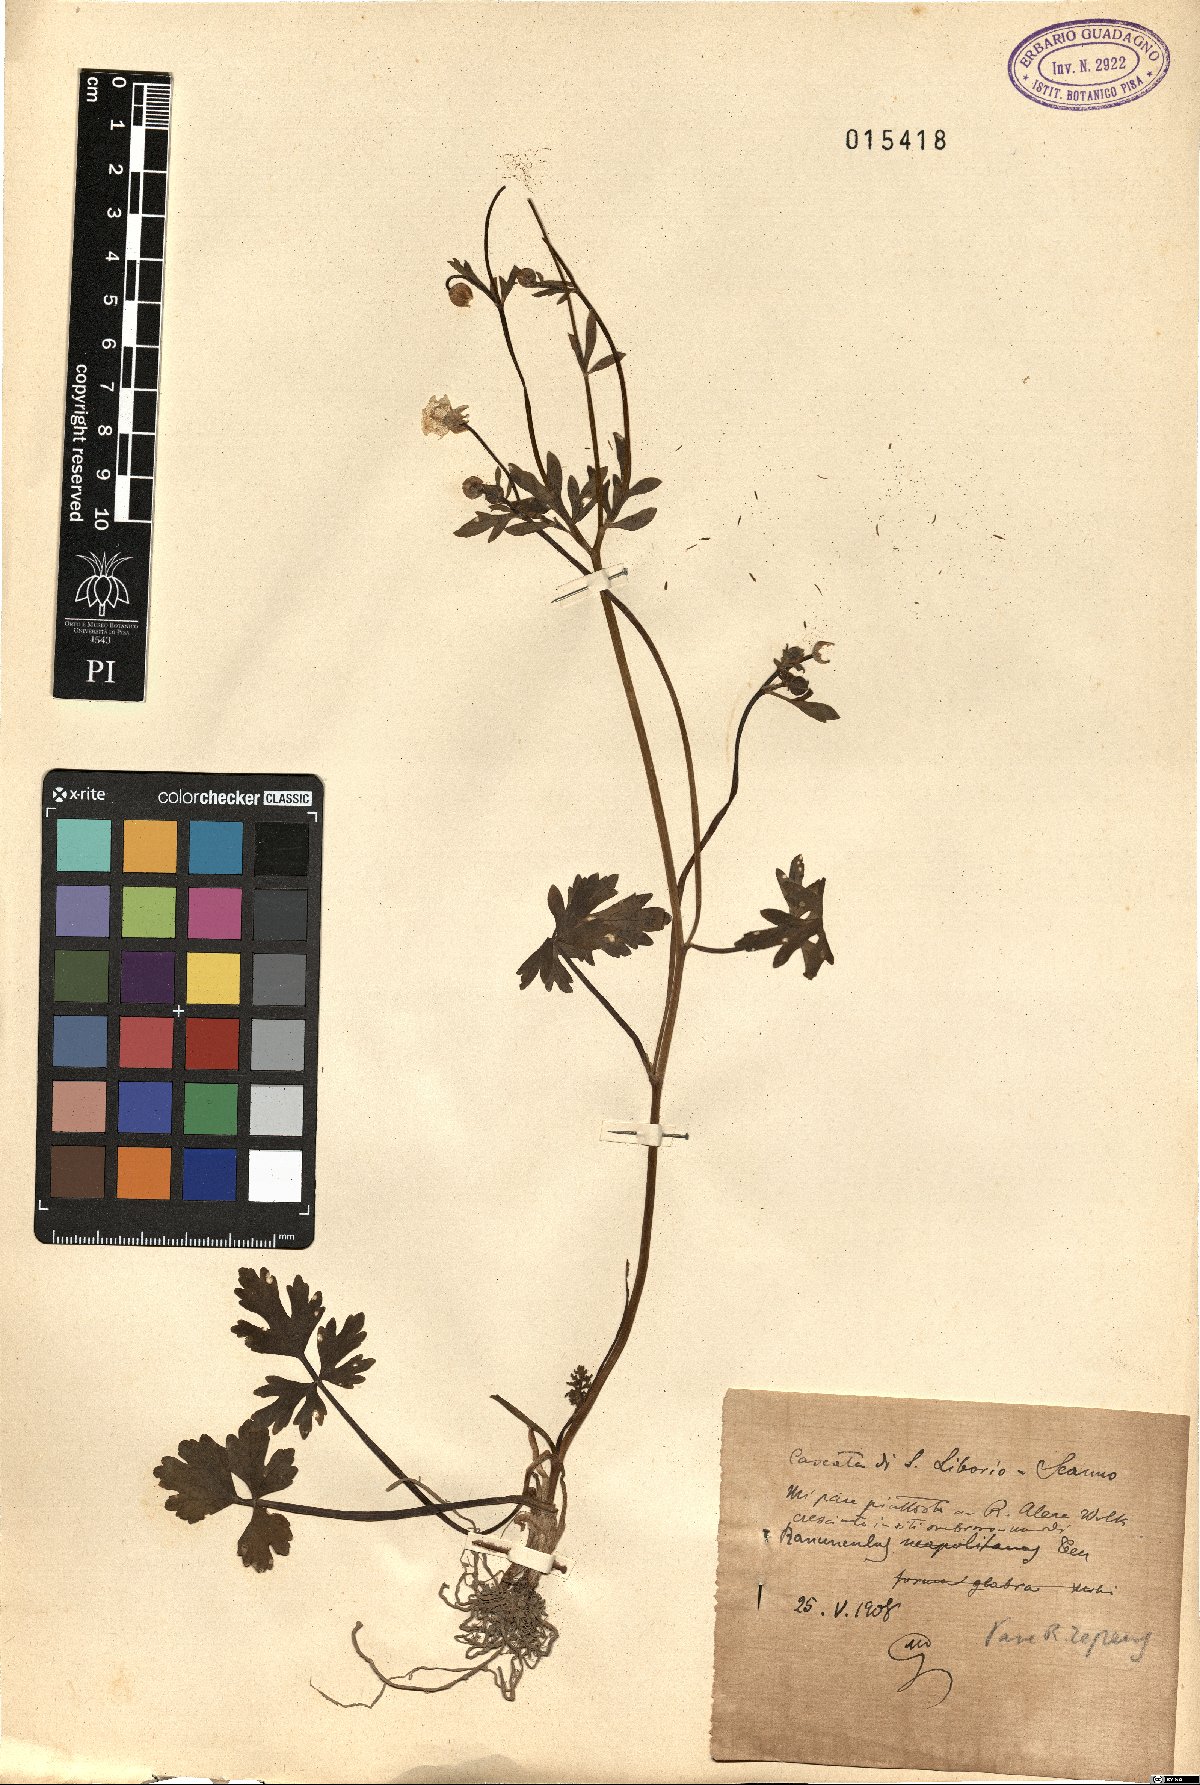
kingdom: Plantae
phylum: Tracheophyta
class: Magnoliopsida
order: Ranunculales
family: Ranunculaceae
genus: Ranunculus
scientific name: Ranunculus repens
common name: Creeping buttercup
